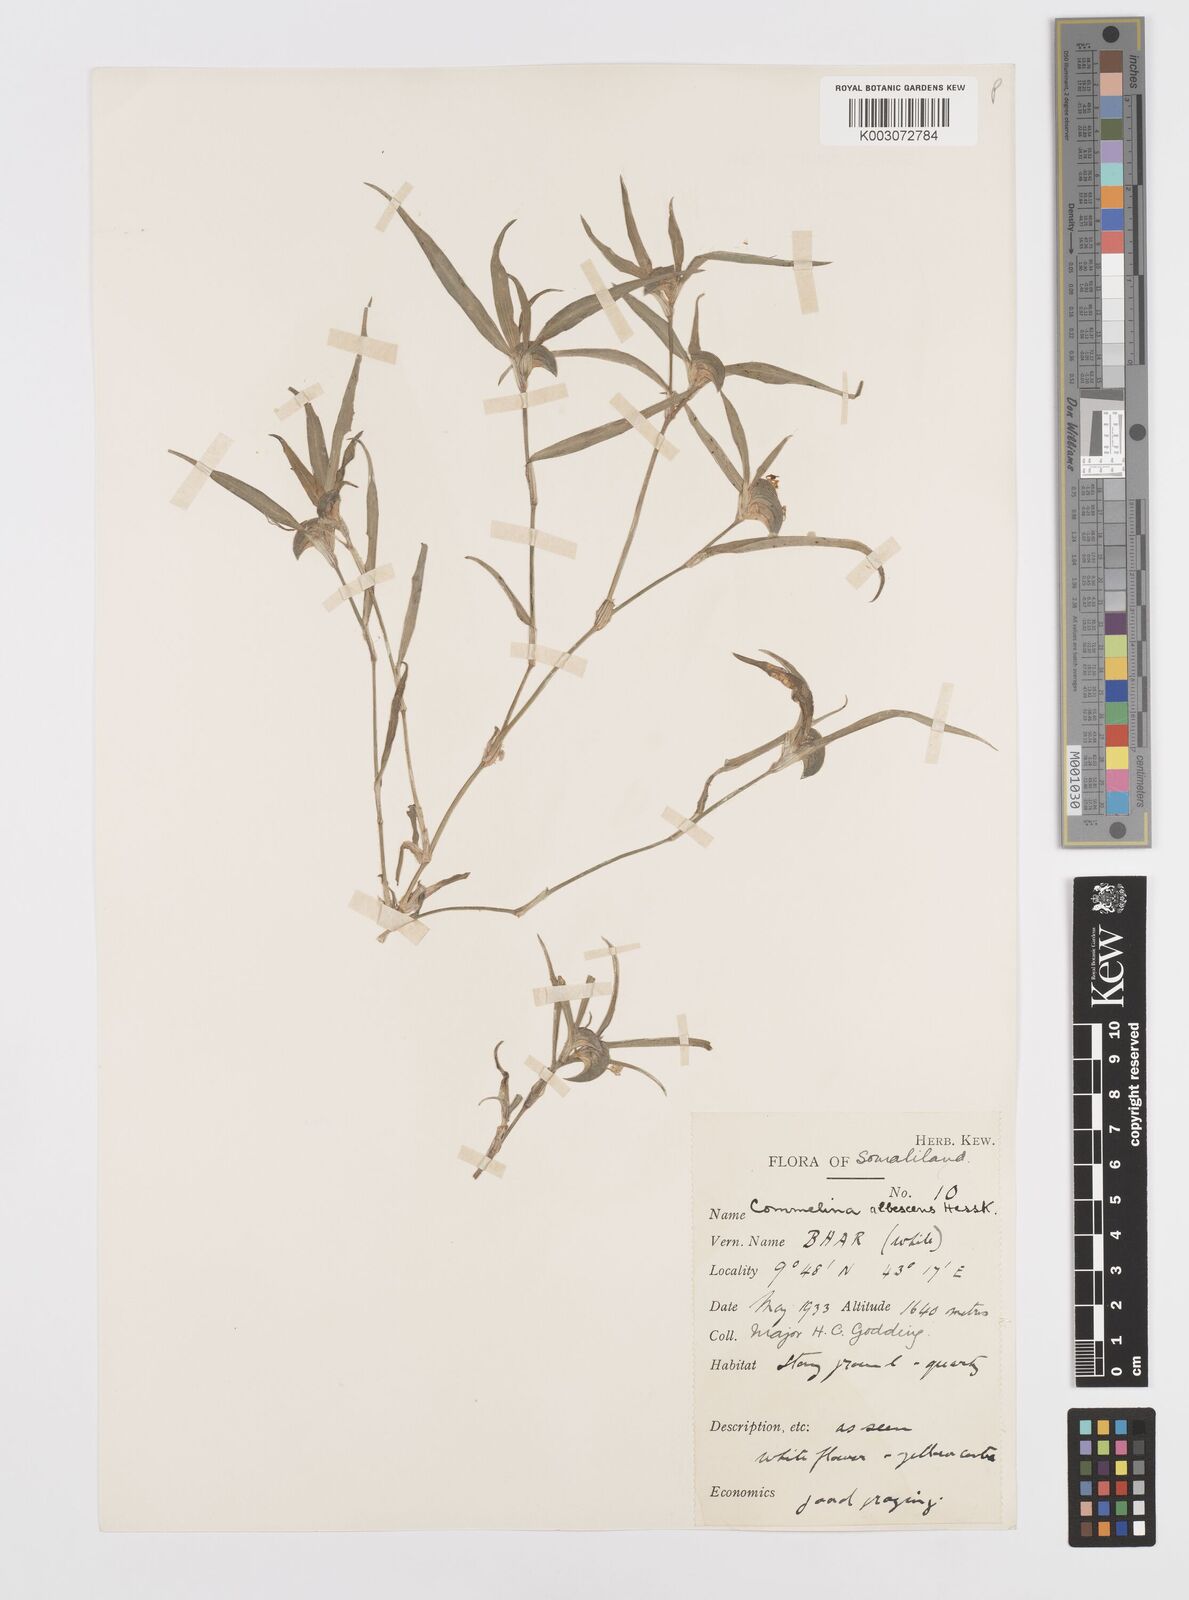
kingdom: Plantae
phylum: Tracheophyta
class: Liliopsida
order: Commelinales
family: Commelinaceae
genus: Commelina
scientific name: Commelina albescens
